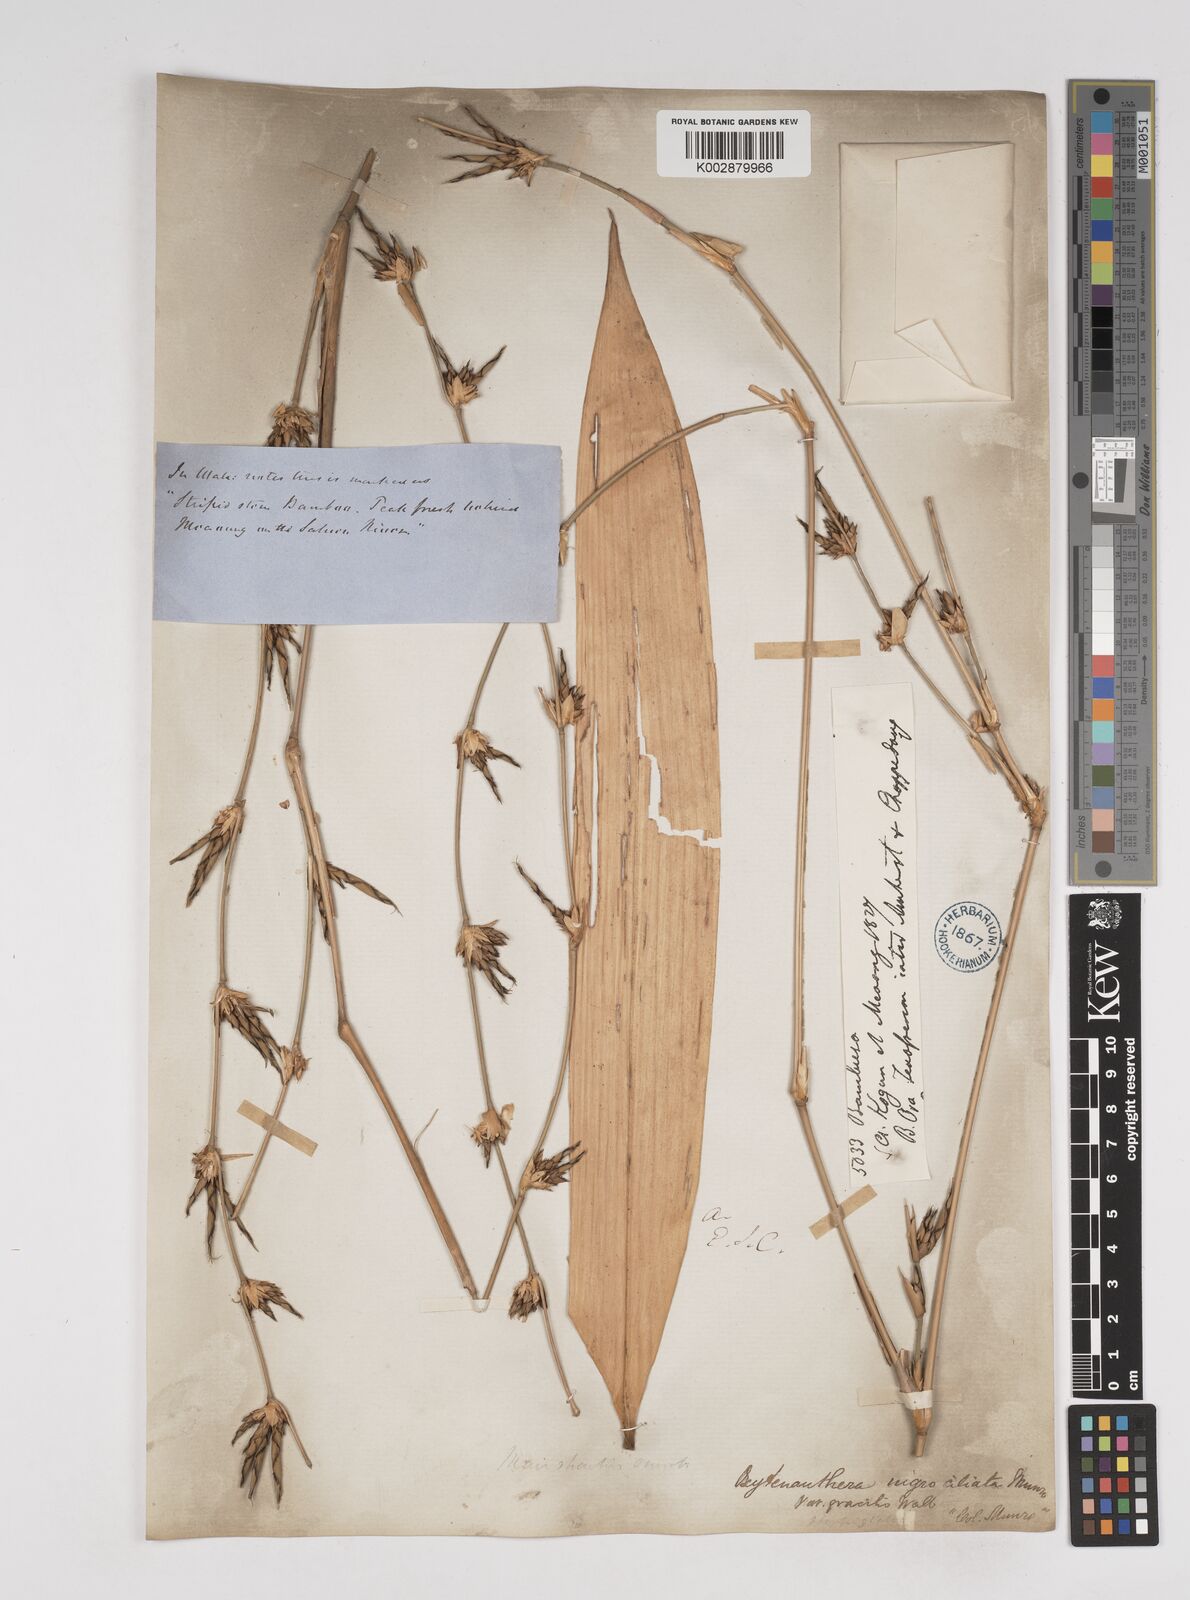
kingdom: Plantae
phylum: Tracheophyta
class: Liliopsida
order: Poales
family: Poaceae
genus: Gigantochloa
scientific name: Gigantochloa nigrociliata
